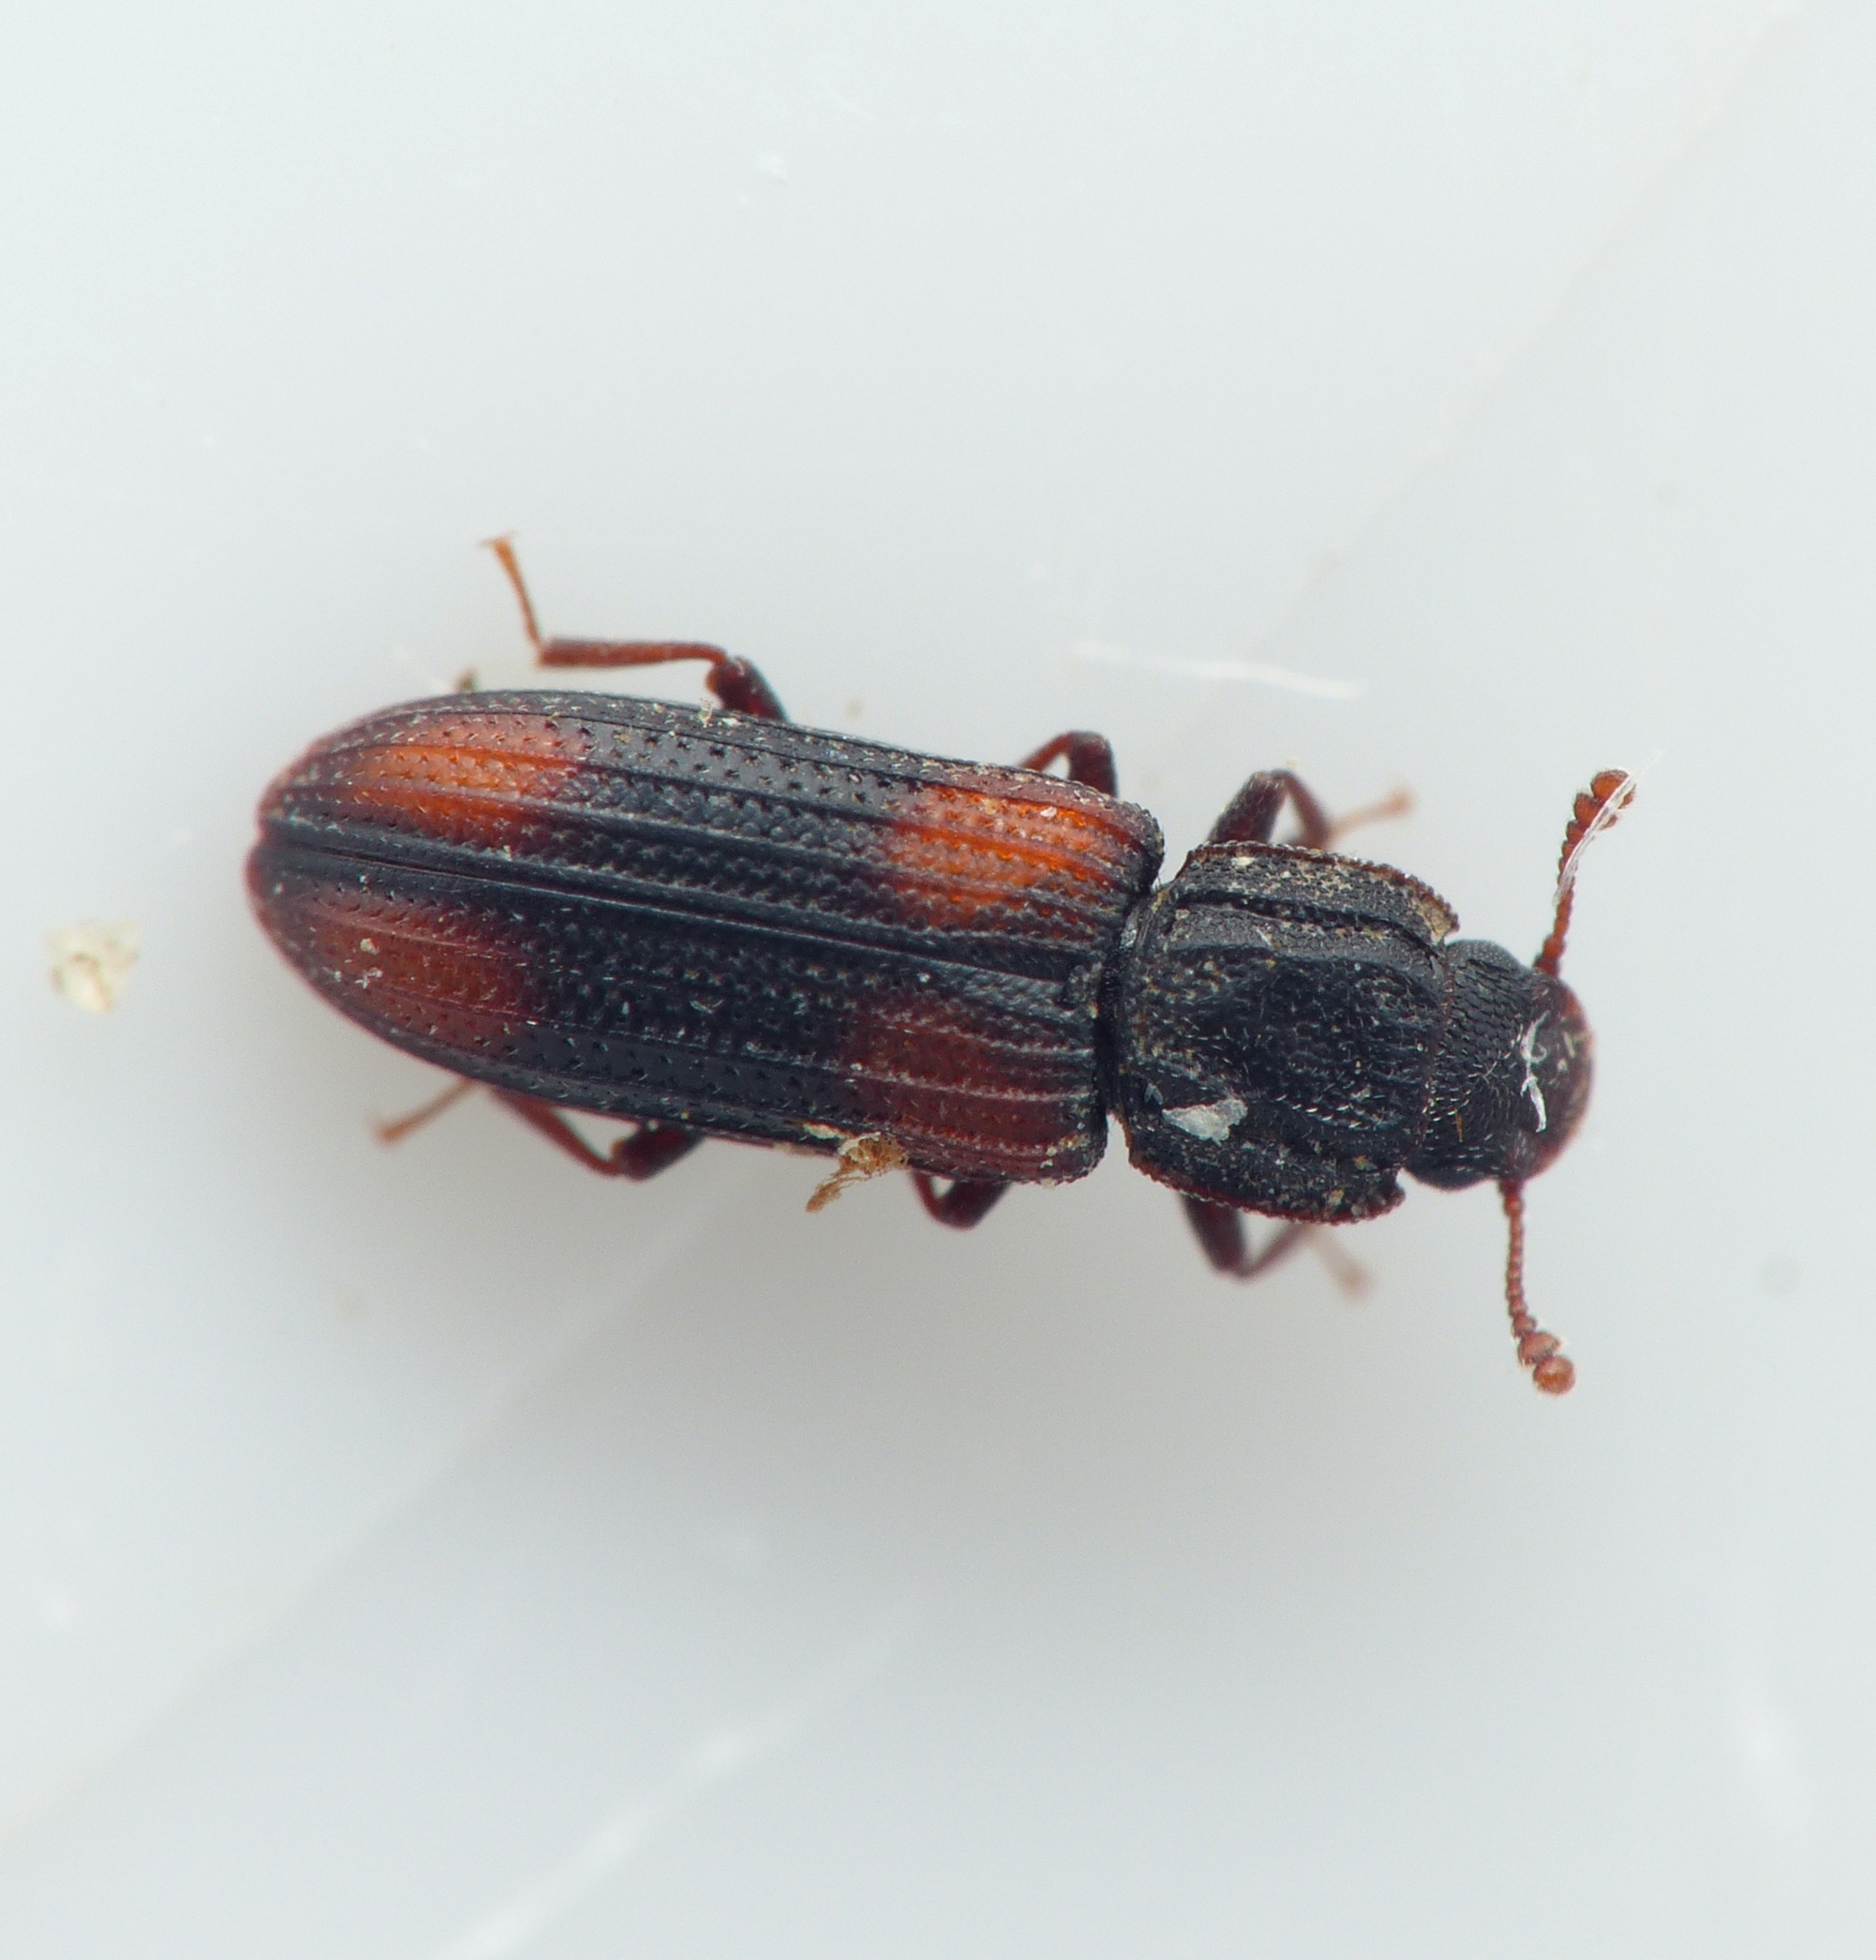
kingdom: Animalia
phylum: Arthropoda
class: Insecta
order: Coleoptera
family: Zopheridae
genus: Bitoma
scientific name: Bitoma crenata
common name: Dannebrogsbille
